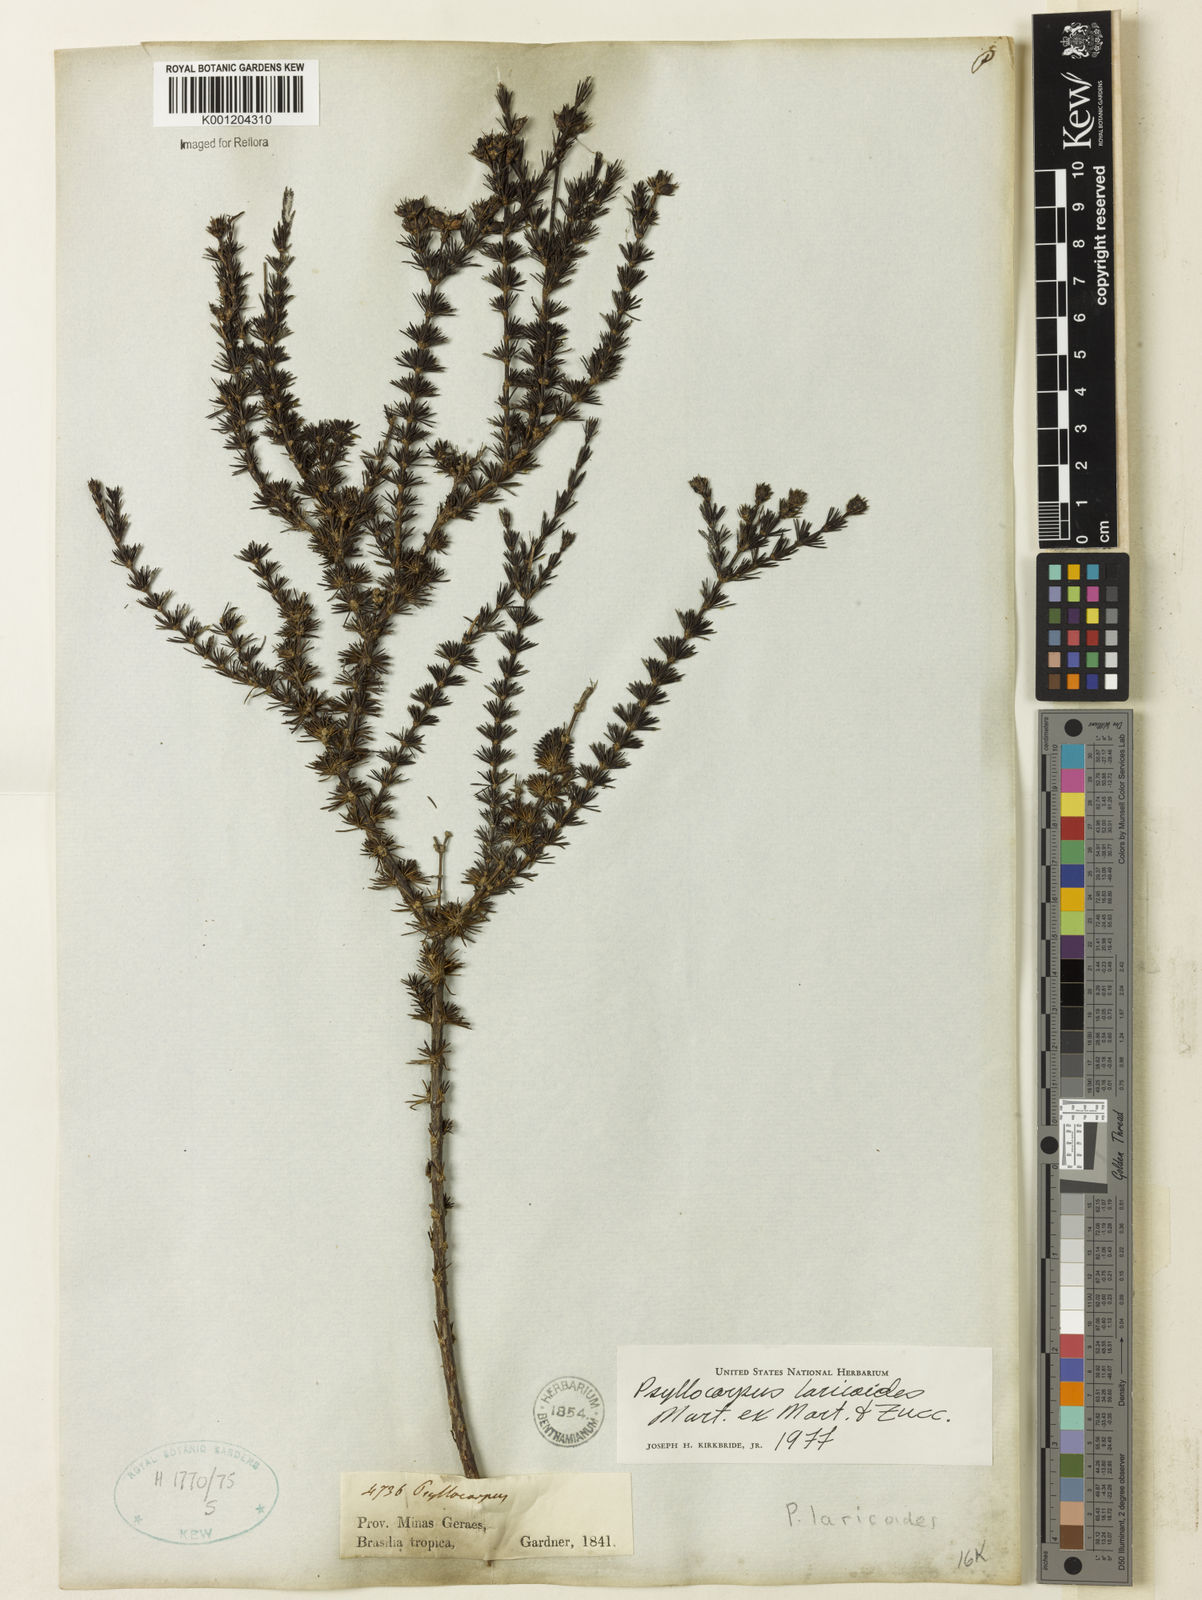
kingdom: Plantae
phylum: Tracheophyta
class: Magnoliopsida
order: Gentianales
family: Rubiaceae
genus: Psyllocarpus
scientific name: Psyllocarpus laricoides
